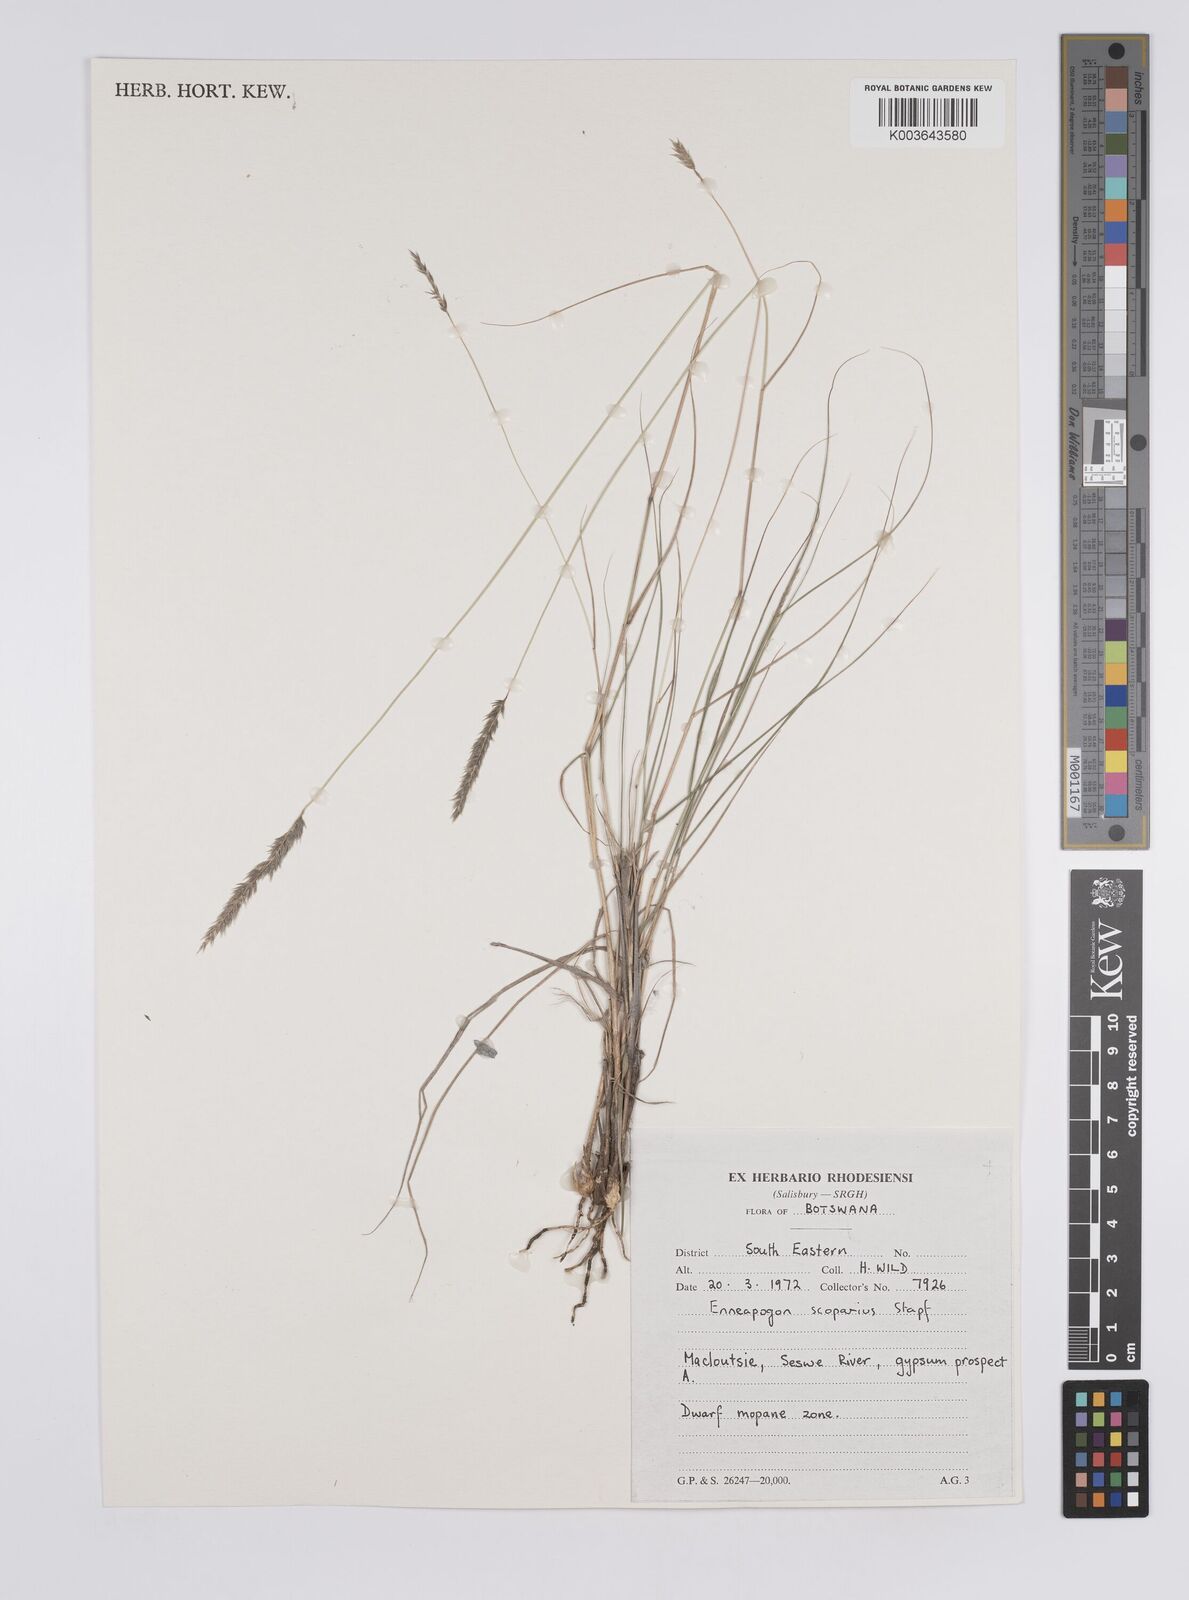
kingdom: Plantae
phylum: Tracheophyta
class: Liliopsida
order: Poales
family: Poaceae
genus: Enneapogon
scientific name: Enneapogon scoparius
